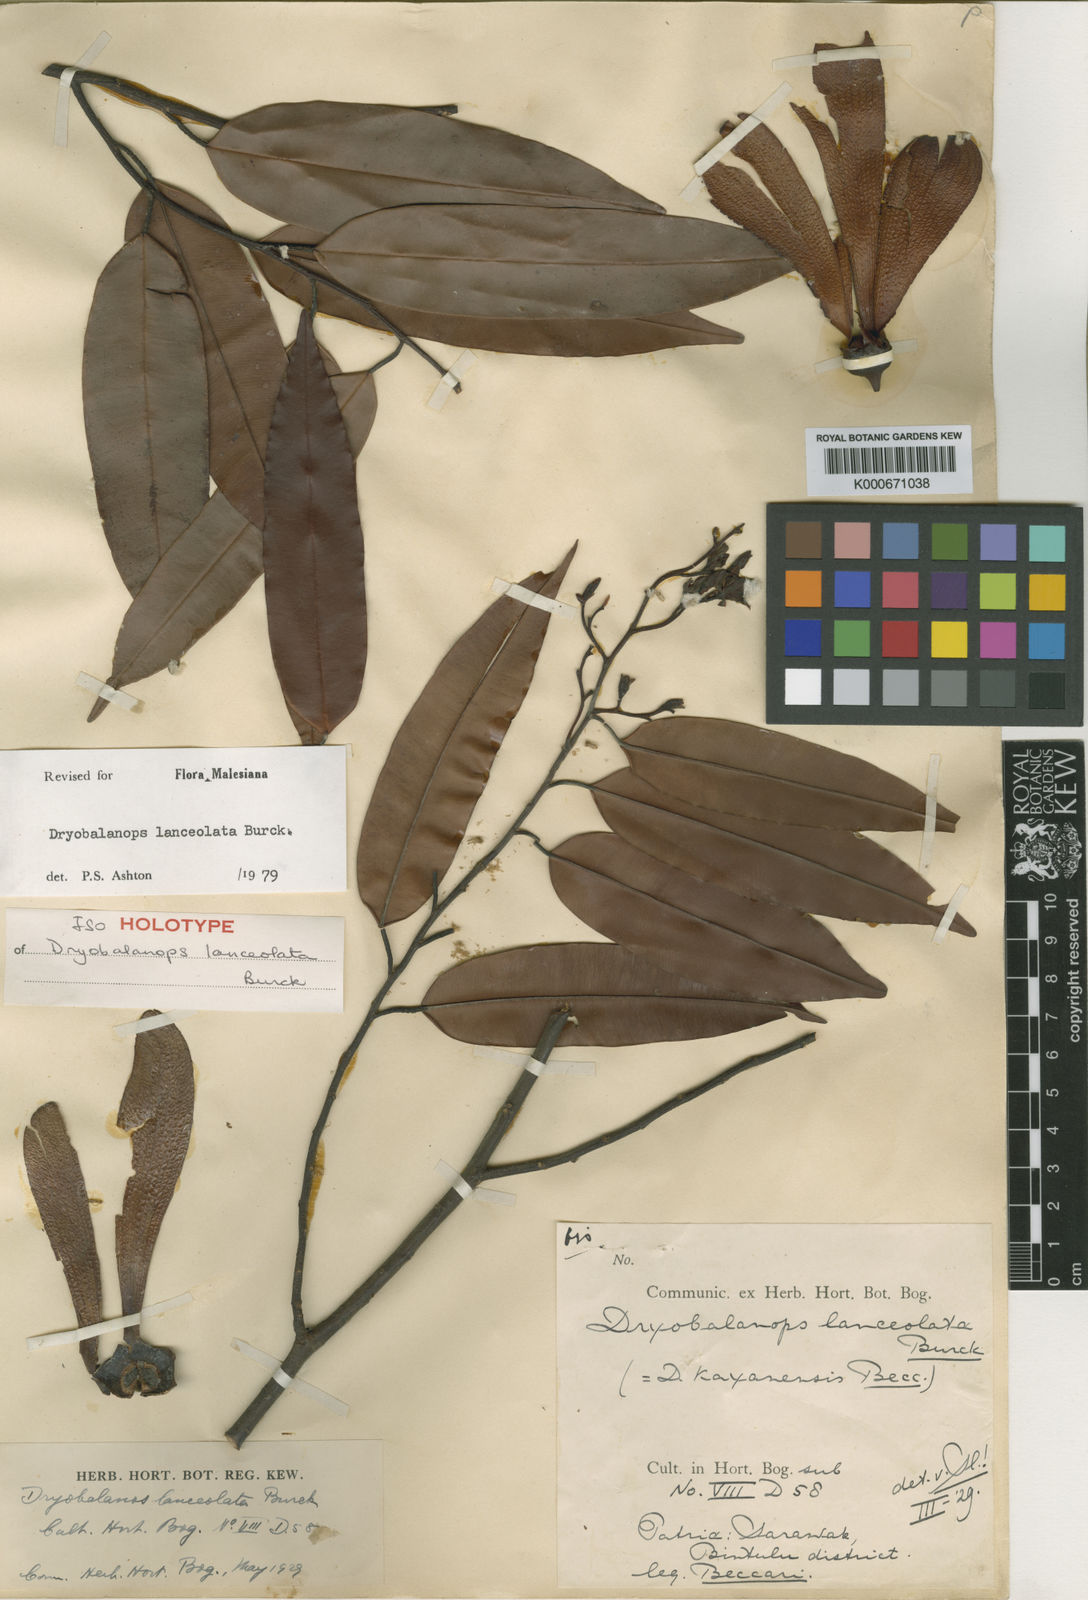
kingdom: Plantae
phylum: Tracheophyta
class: Magnoliopsida
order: Malvales
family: Dipterocarpaceae
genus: Dryobalanops
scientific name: Dryobalanops lanceolata
